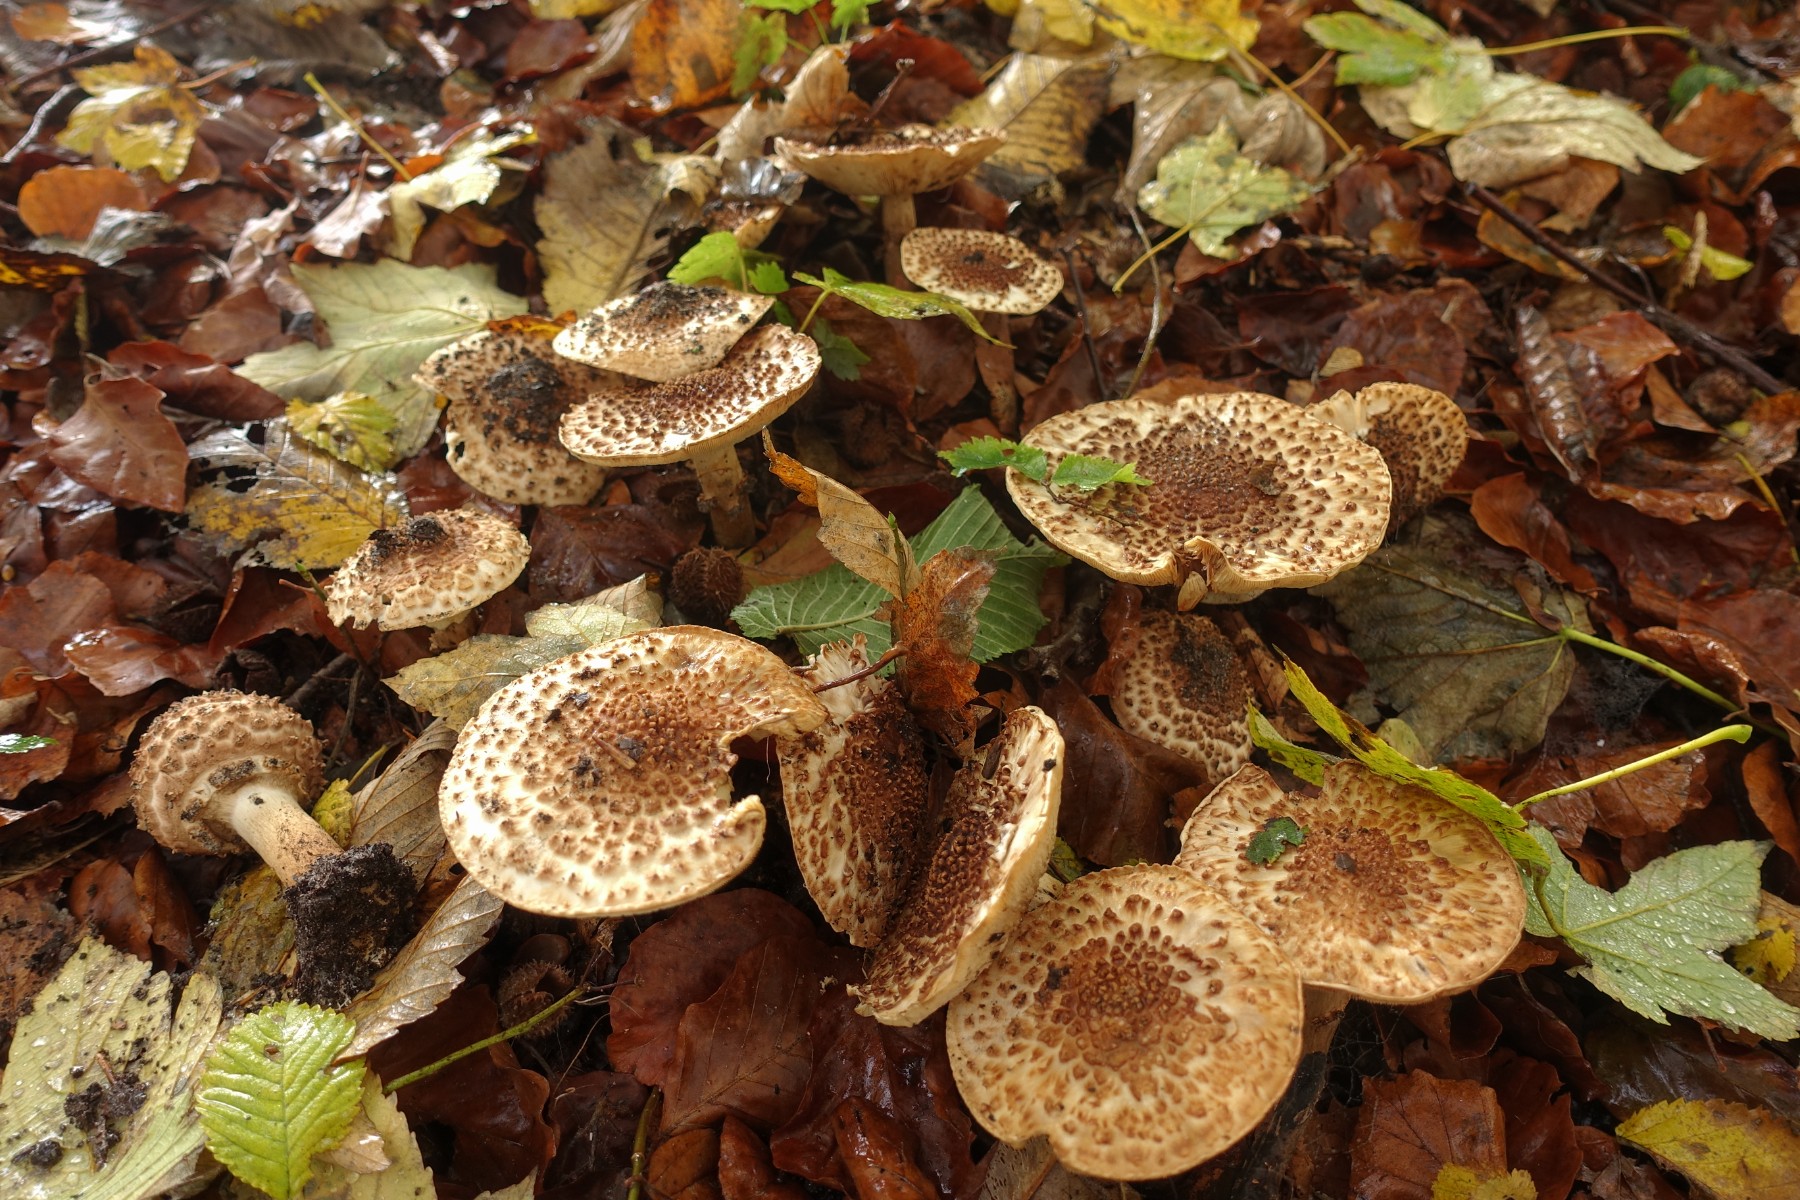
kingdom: Fungi
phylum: Basidiomycota
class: Agaricomycetes
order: Agaricales
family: Agaricaceae
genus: Echinoderma
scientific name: Echinoderma asperum
